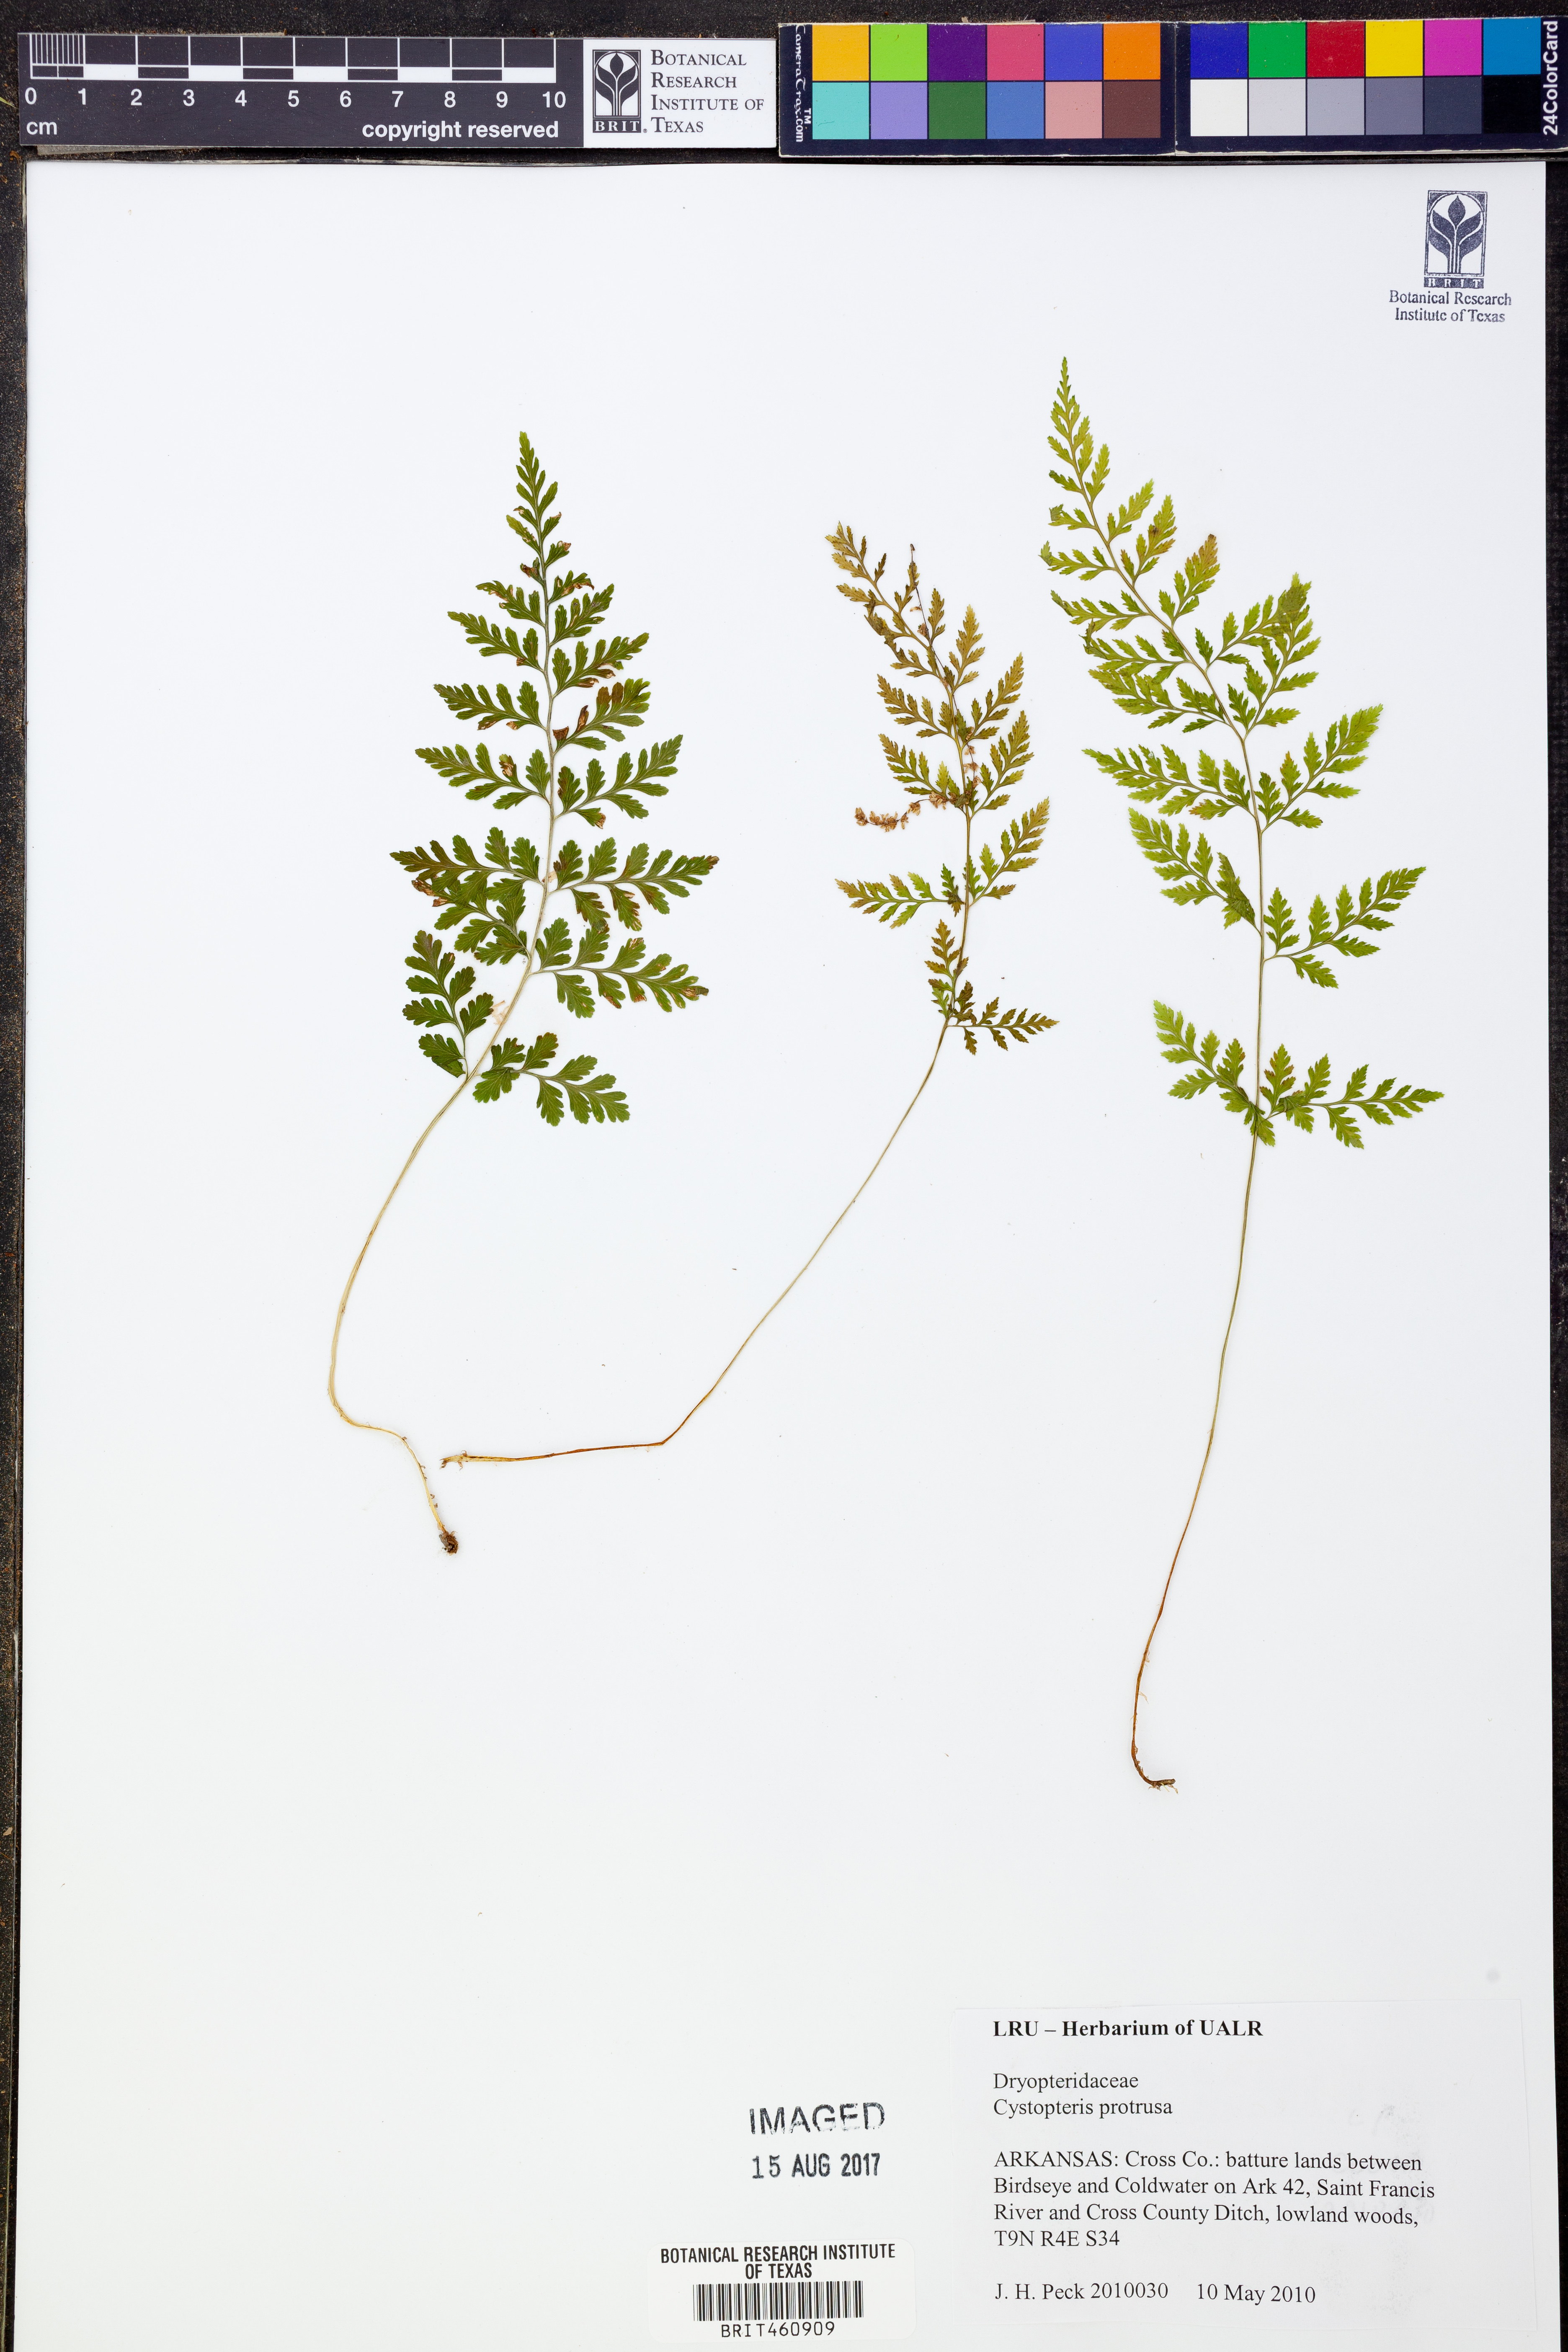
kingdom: Plantae
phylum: Tracheophyta
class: Polypodiopsida
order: Polypodiales
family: Cystopteridaceae
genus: Cystopteris
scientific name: Cystopteris protrusa
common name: Lowland brittle fern
